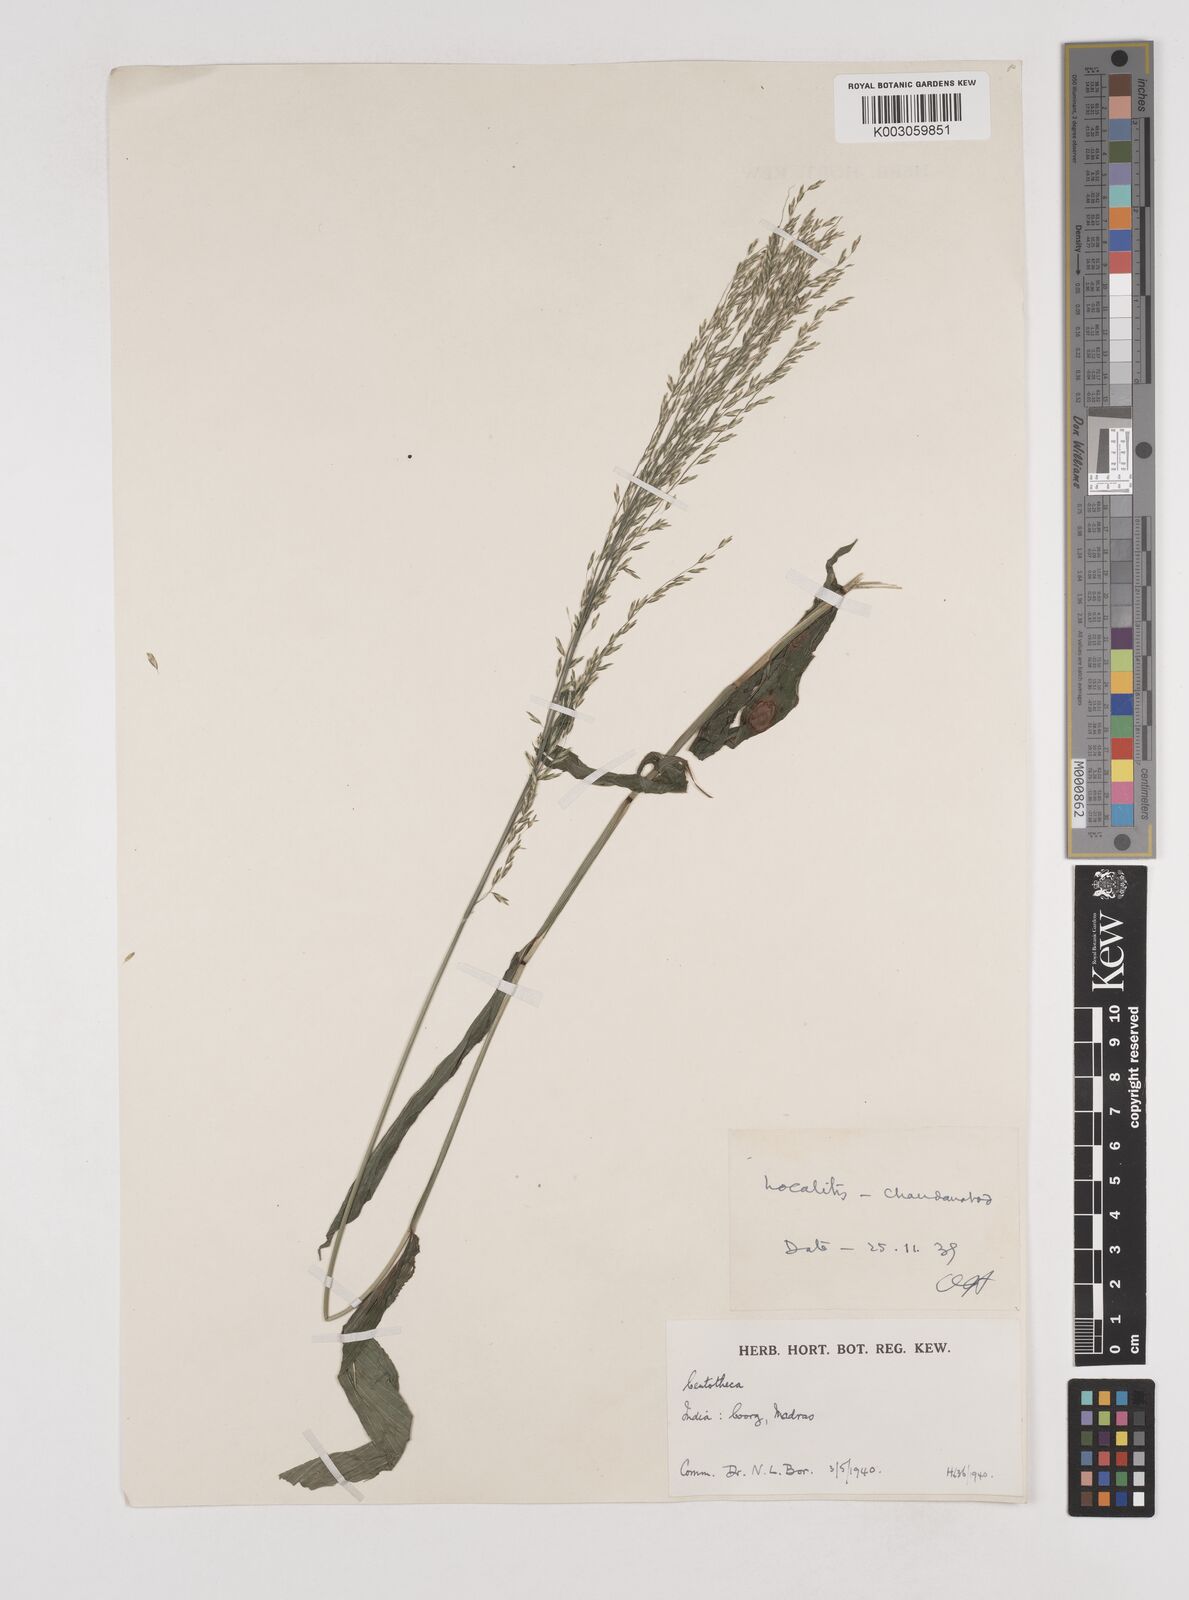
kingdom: Plantae
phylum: Tracheophyta
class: Liliopsida
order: Poales
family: Poaceae
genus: Centotheca
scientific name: Centotheca lappacea
